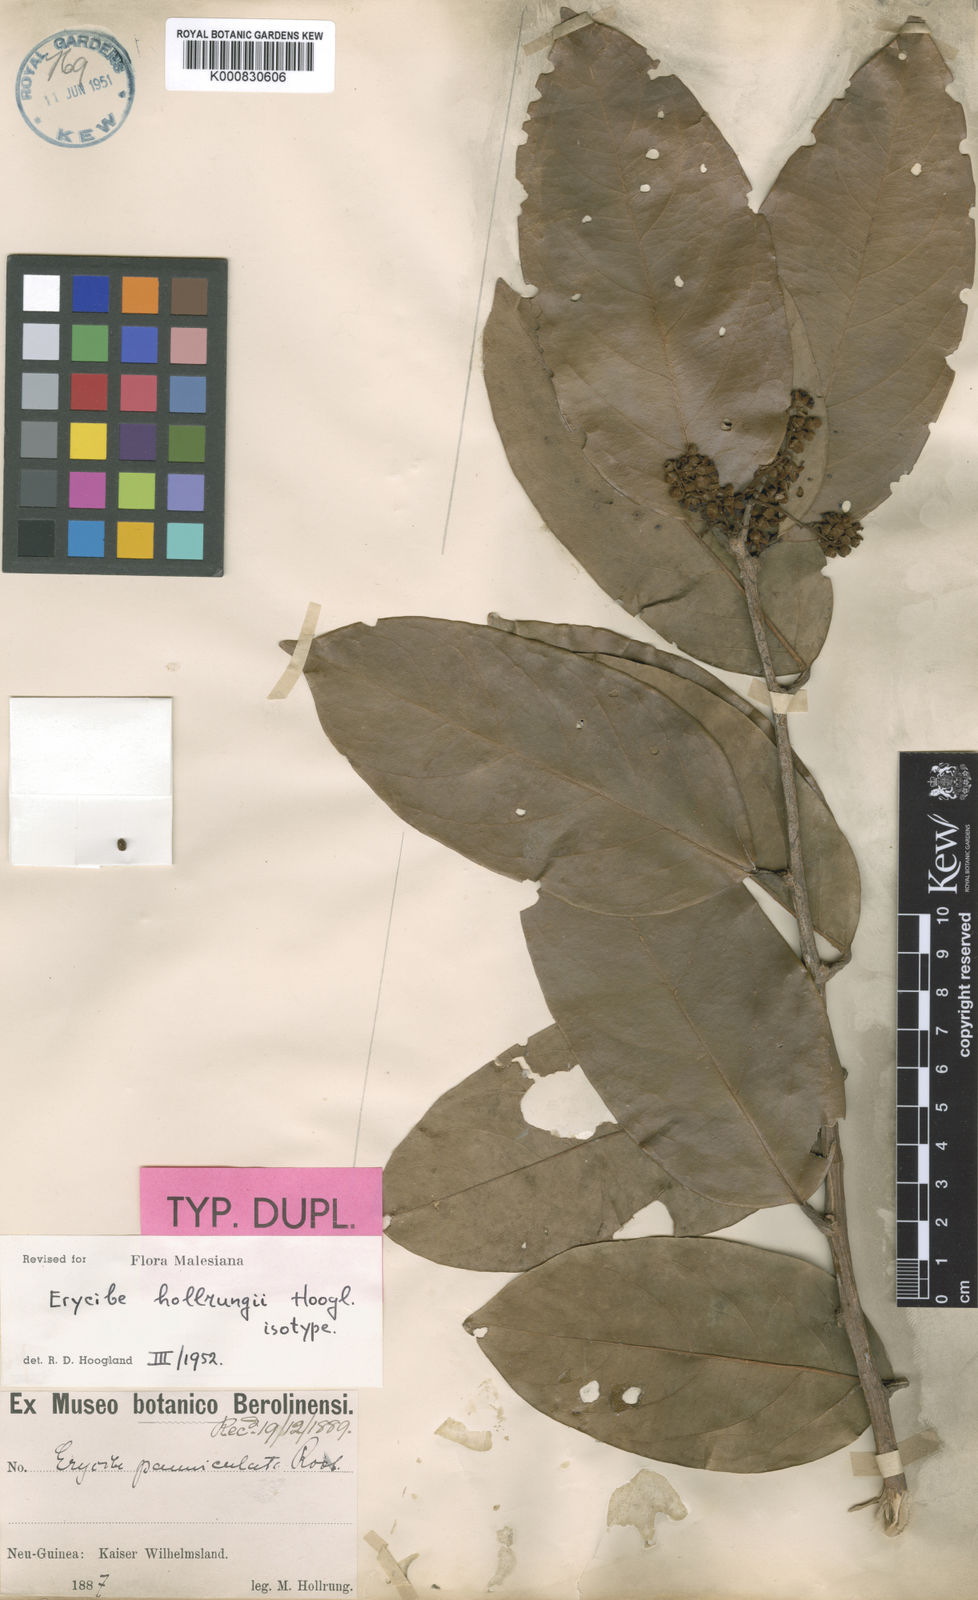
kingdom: Plantae
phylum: Tracheophyta
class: Magnoliopsida
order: Solanales
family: Convolvulaceae
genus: Erycibe
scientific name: Erycibe hollrungii
